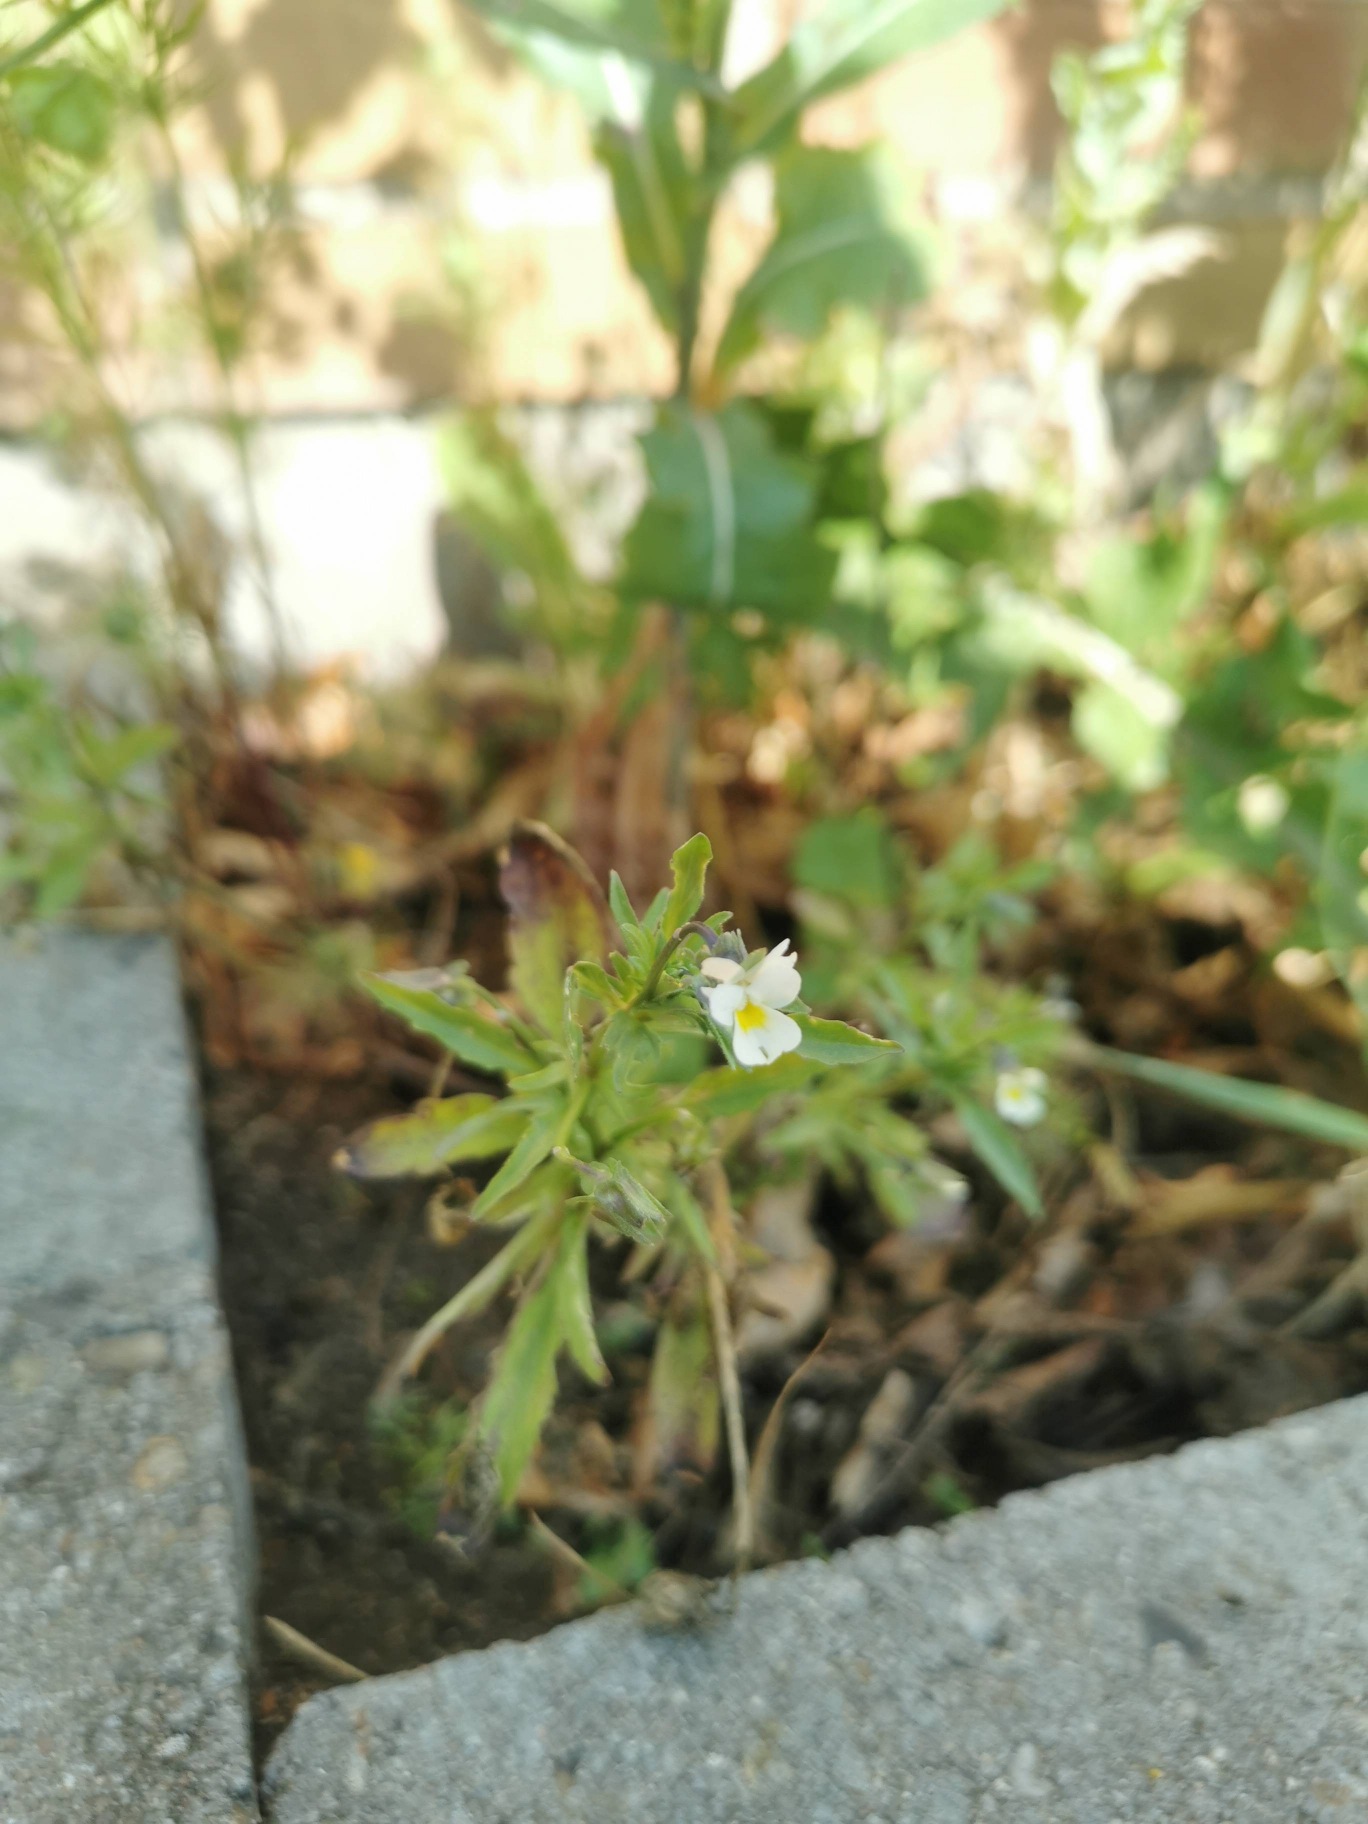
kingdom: Plantae
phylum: Tracheophyta
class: Magnoliopsida
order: Malpighiales
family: Violaceae
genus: Viola
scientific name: Viola arvensis
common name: Ager-stedmoderblomst
